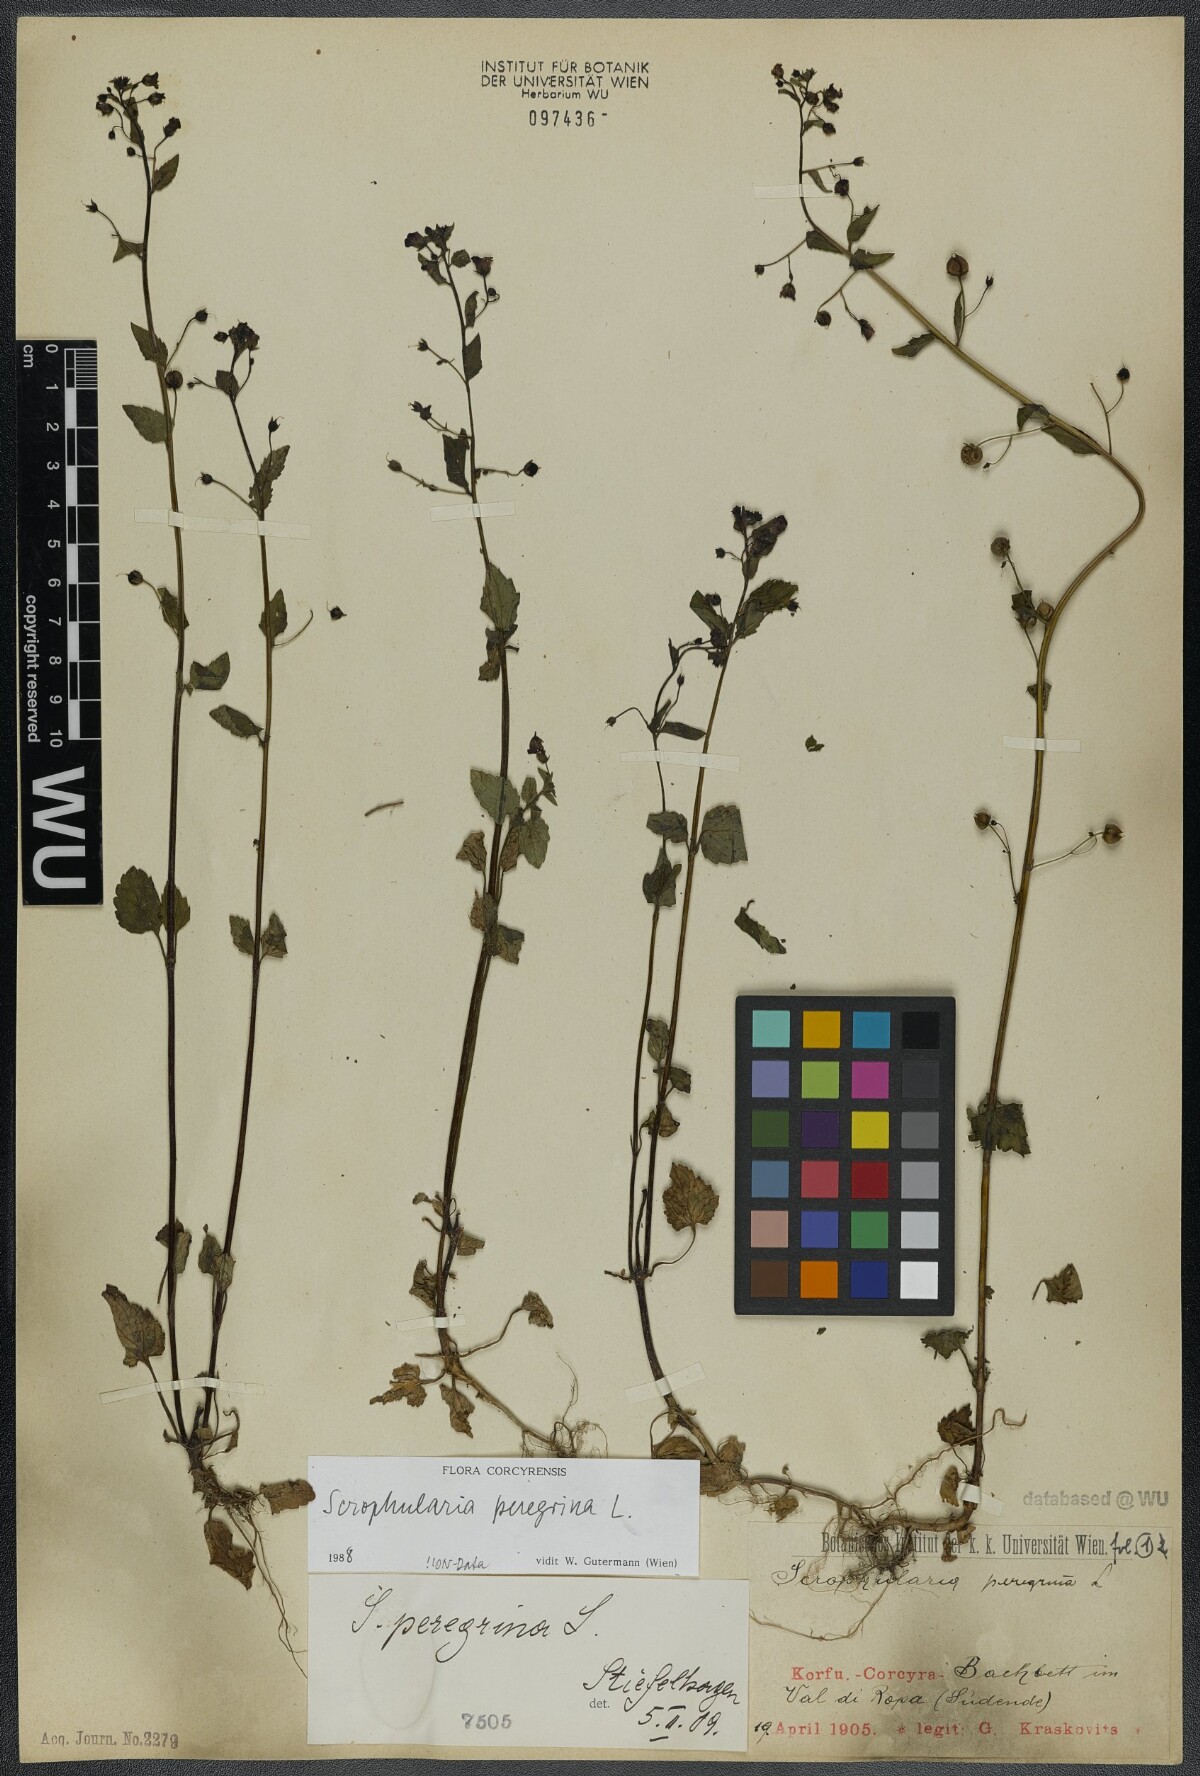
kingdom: Plantae
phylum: Tracheophyta
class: Magnoliopsida
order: Lamiales
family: Scrophulariaceae
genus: Scrophularia
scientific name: Scrophularia peregrina
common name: Mediterranean figwort
